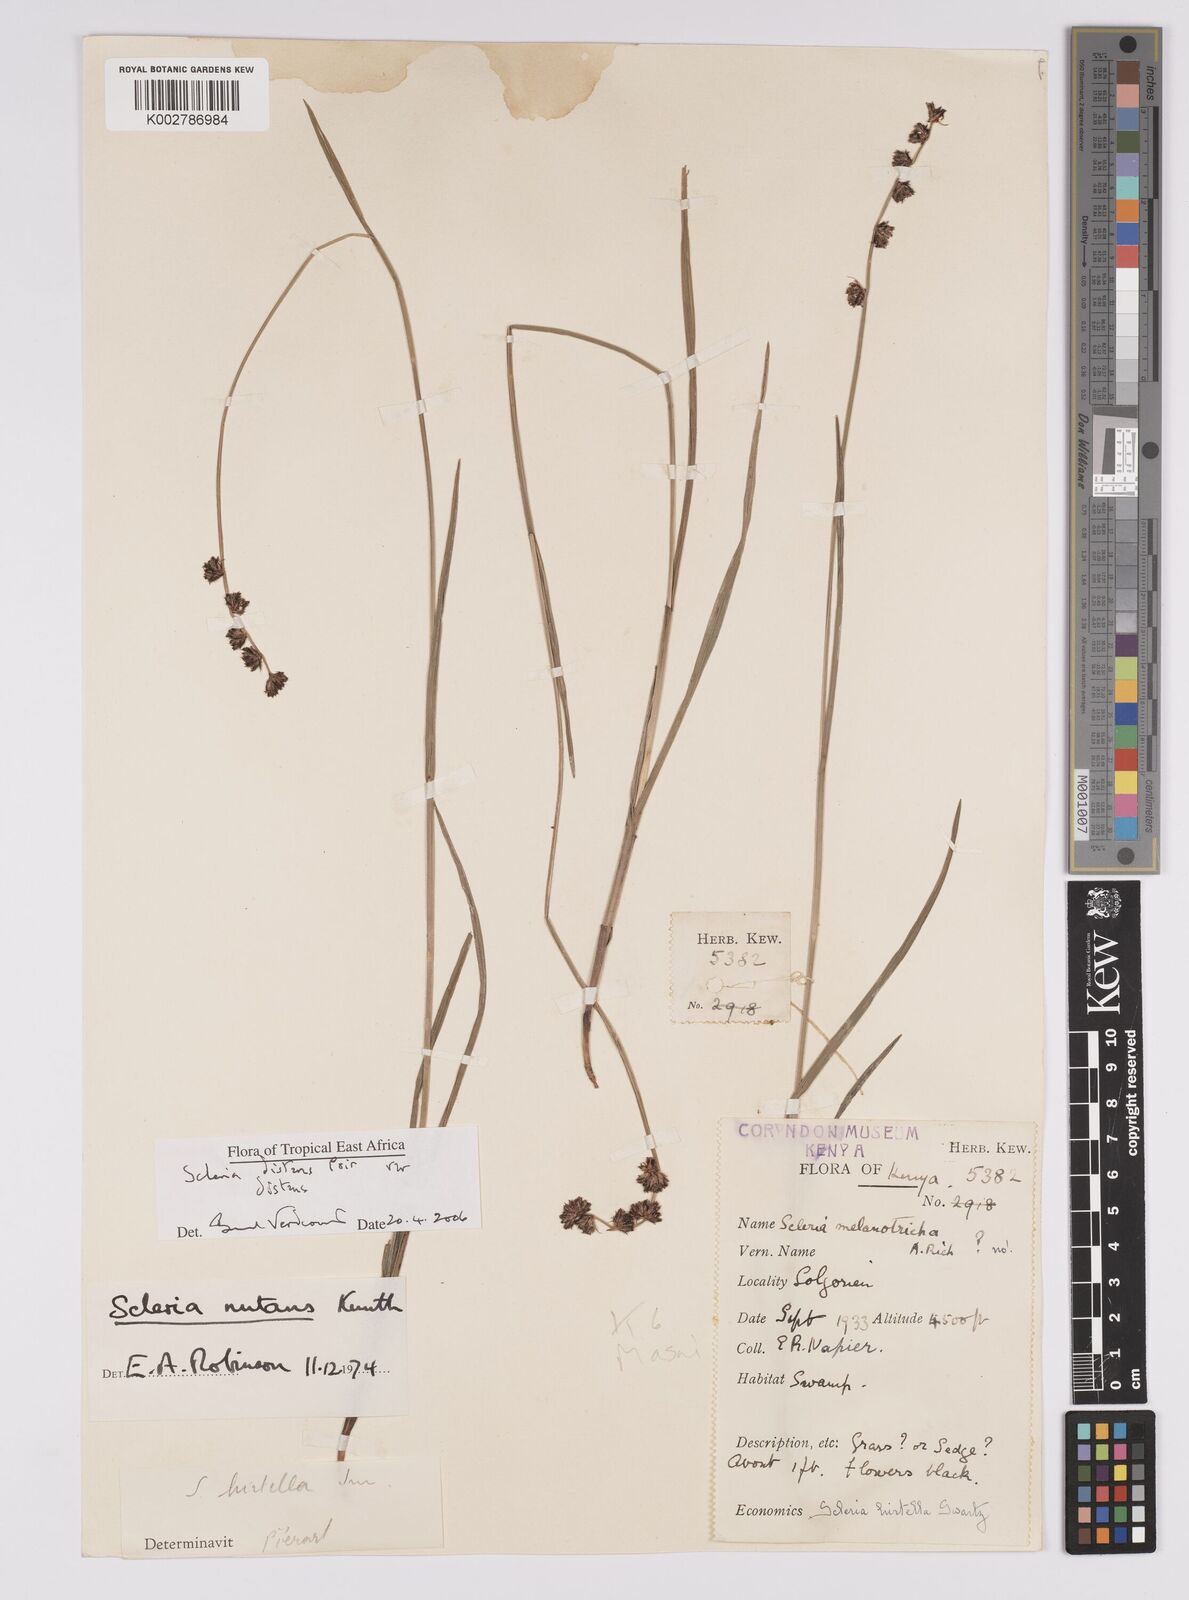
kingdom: Plantae
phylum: Tracheophyta
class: Liliopsida
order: Poales
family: Cyperaceae
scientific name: Cyperaceae
